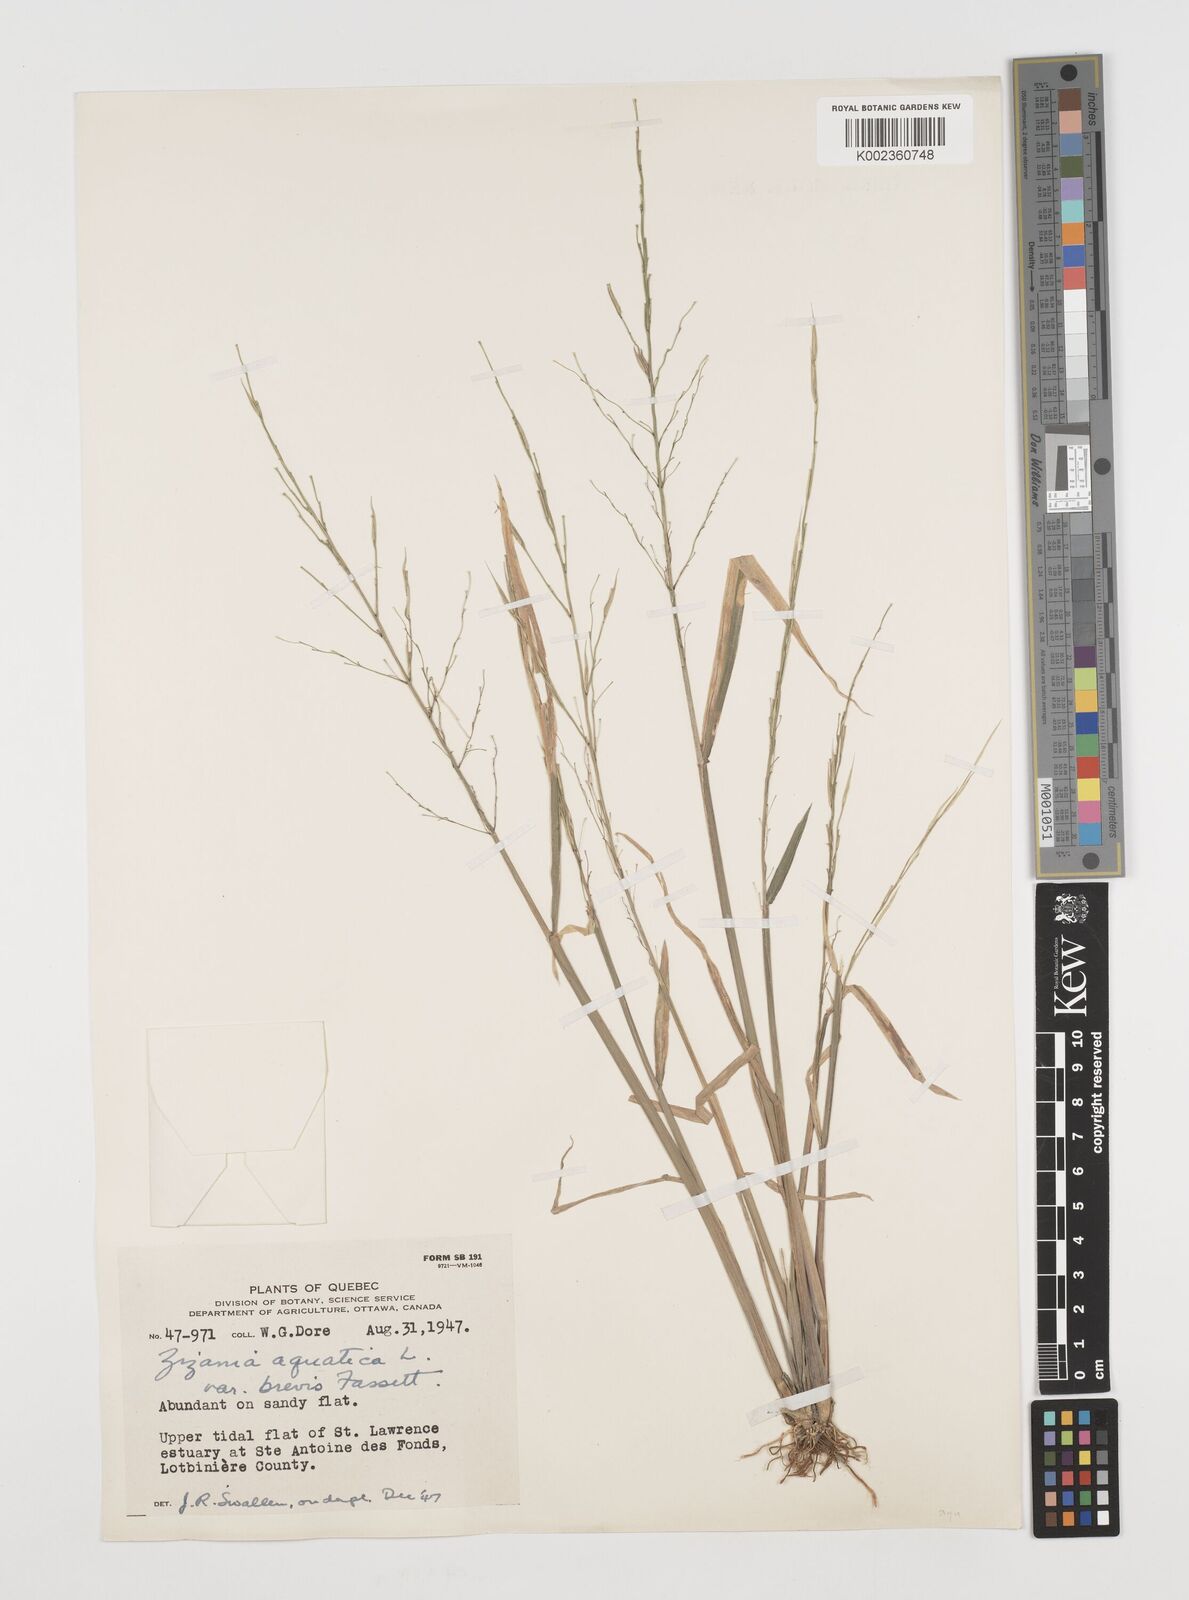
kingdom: Plantae
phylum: Tracheophyta
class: Liliopsida
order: Poales
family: Poaceae
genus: Zizania
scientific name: Zizania aquatica
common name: Annual wildrice
